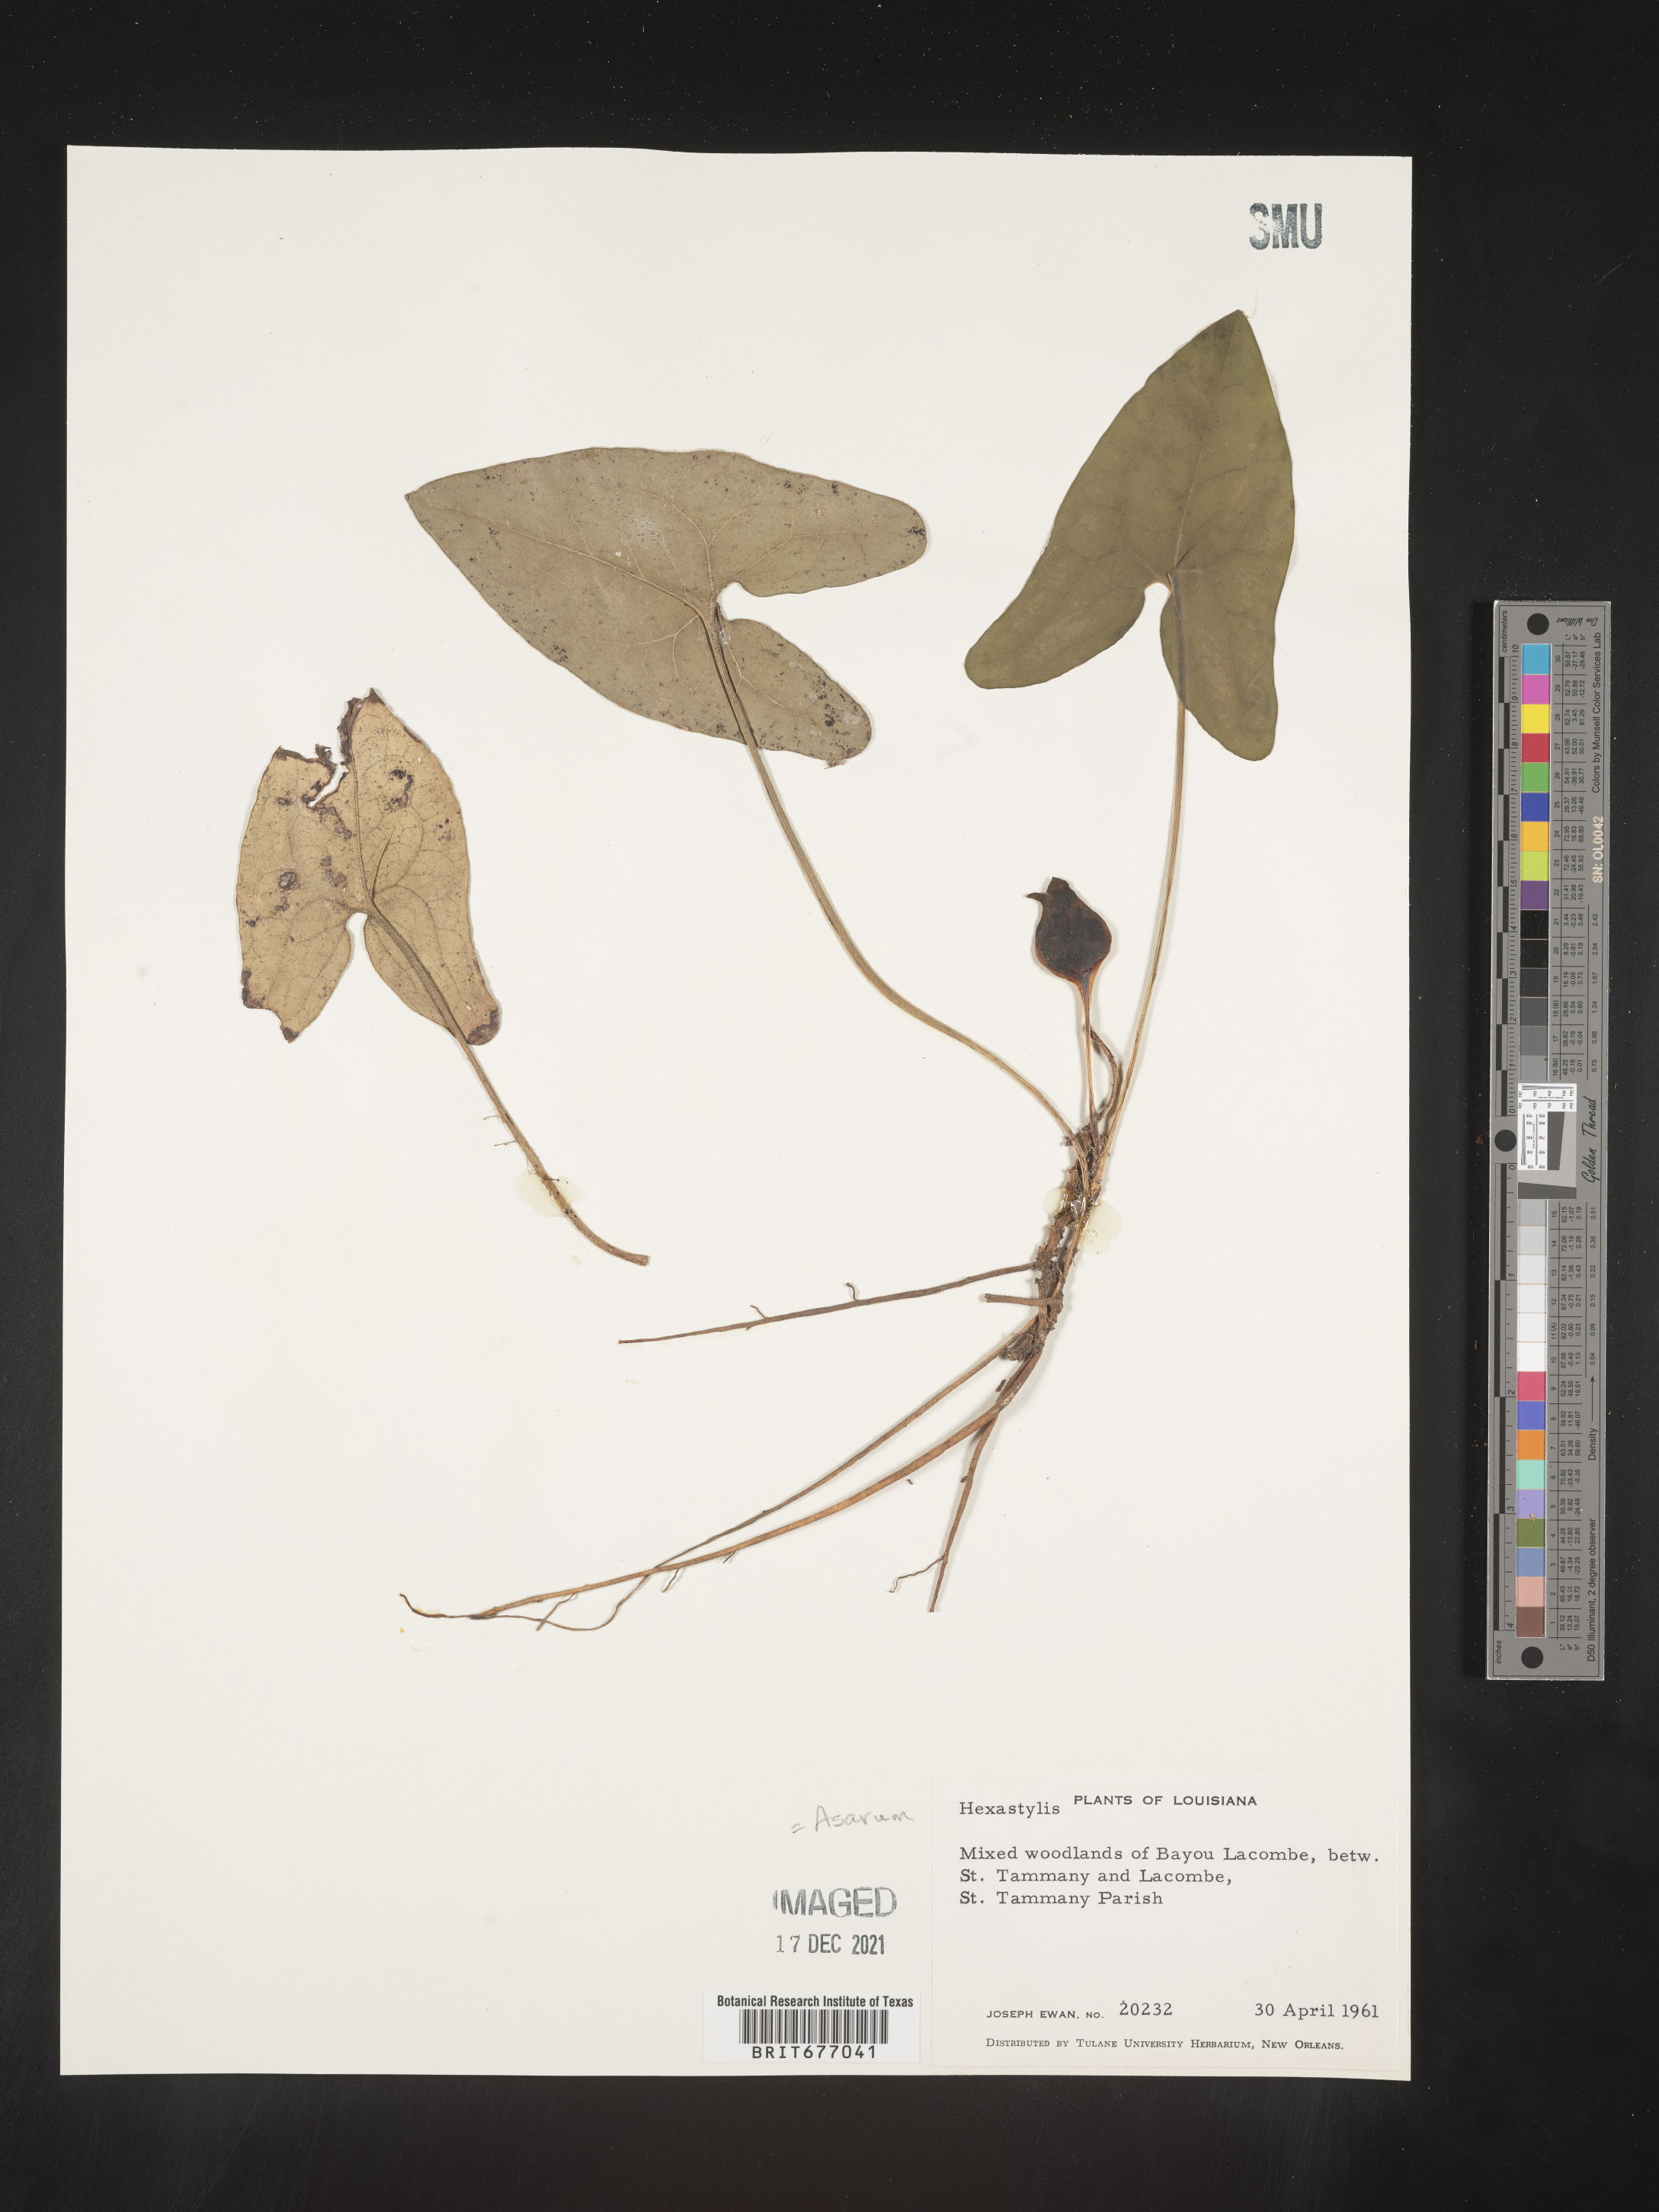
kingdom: Plantae
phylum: Tracheophyta
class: Magnoliopsida
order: Piperales
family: Aristolochiaceae
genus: Asarum
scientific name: Asarum
